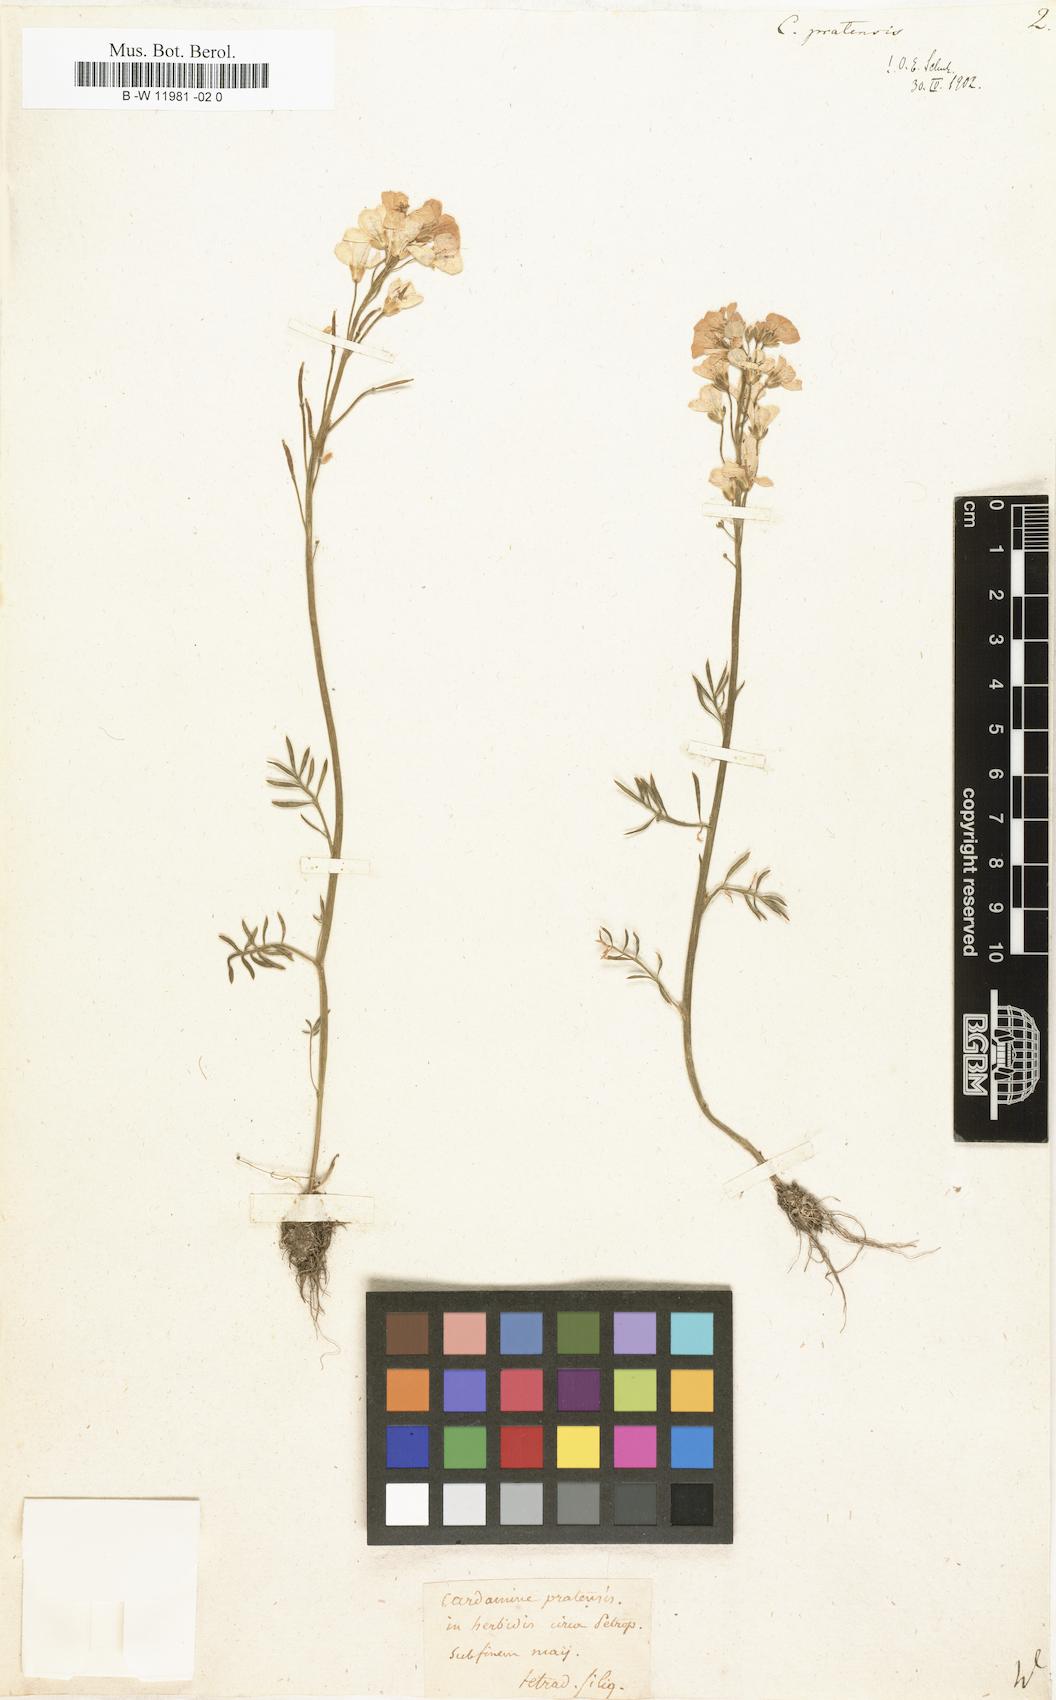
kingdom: Plantae
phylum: Tracheophyta
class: Magnoliopsida
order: Brassicales
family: Brassicaceae
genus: Cardamine
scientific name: Cardamine pratensis
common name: Cuckoo flower
